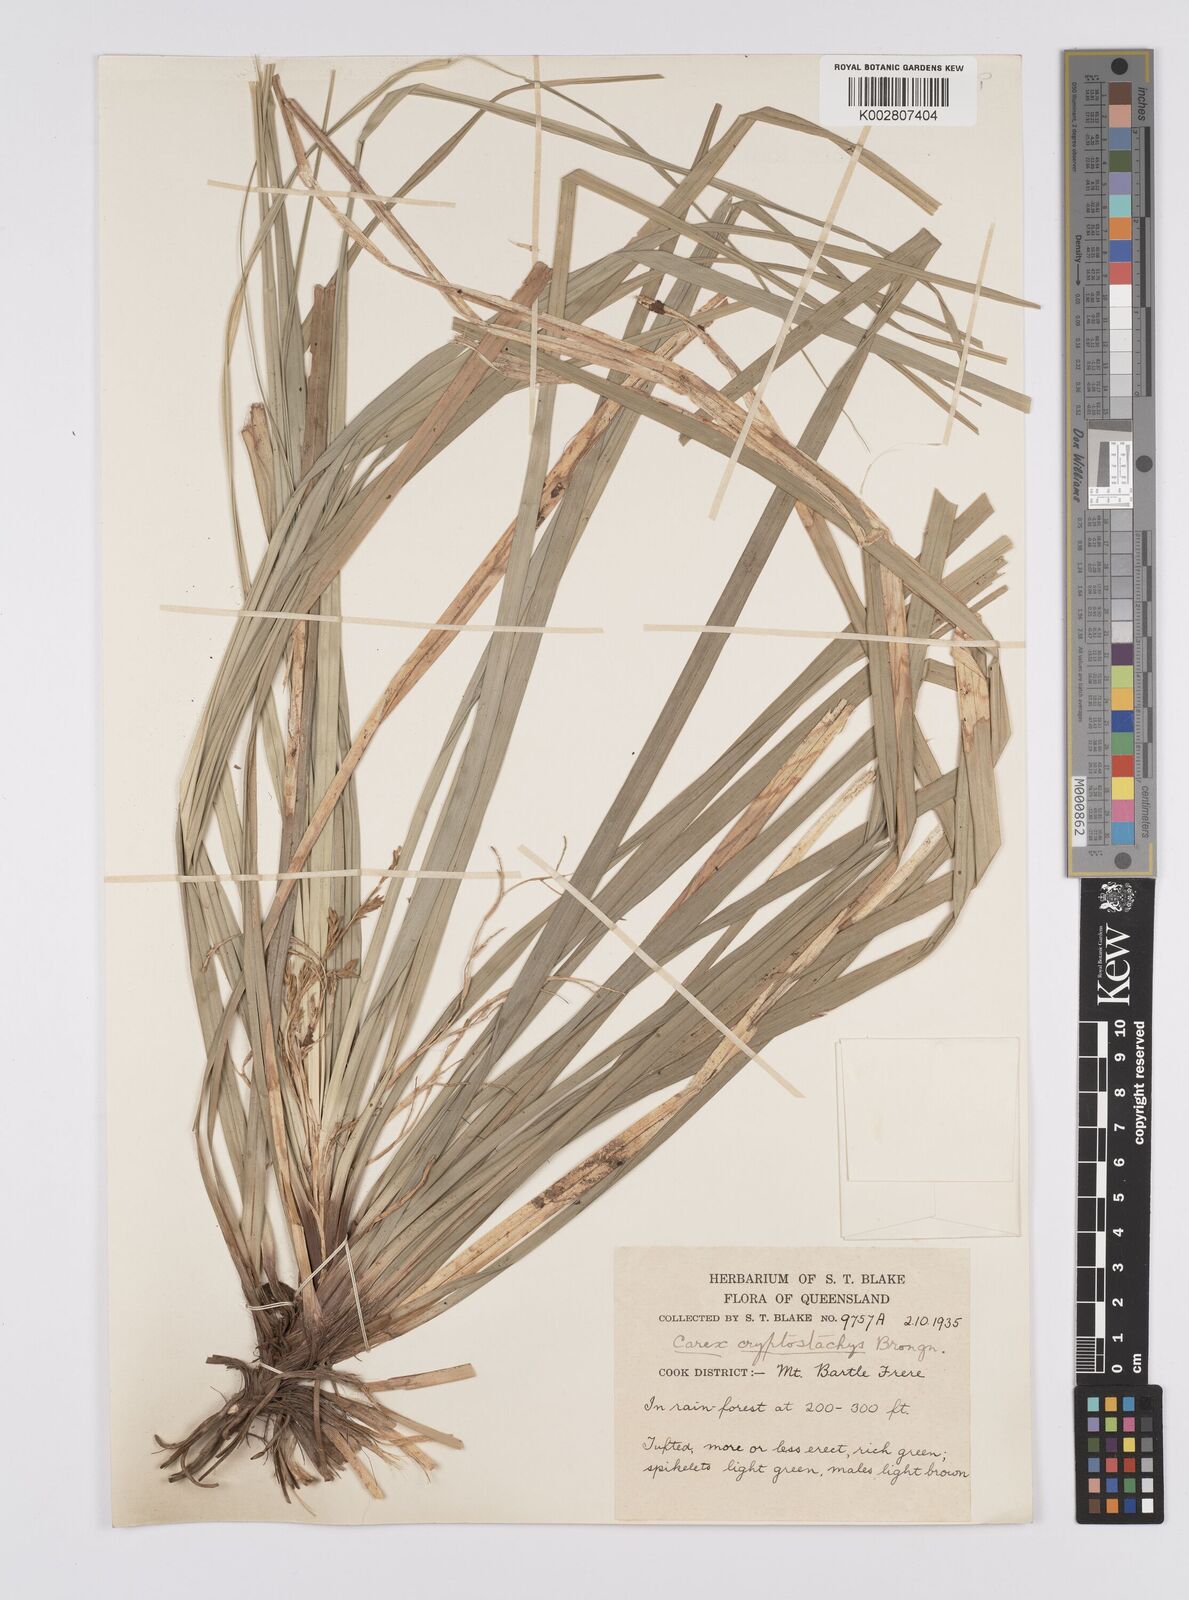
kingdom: Plantae
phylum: Tracheophyta
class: Liliopsida
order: Poales
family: Cyperaceae
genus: Carex
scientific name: Carex cryptostachys
